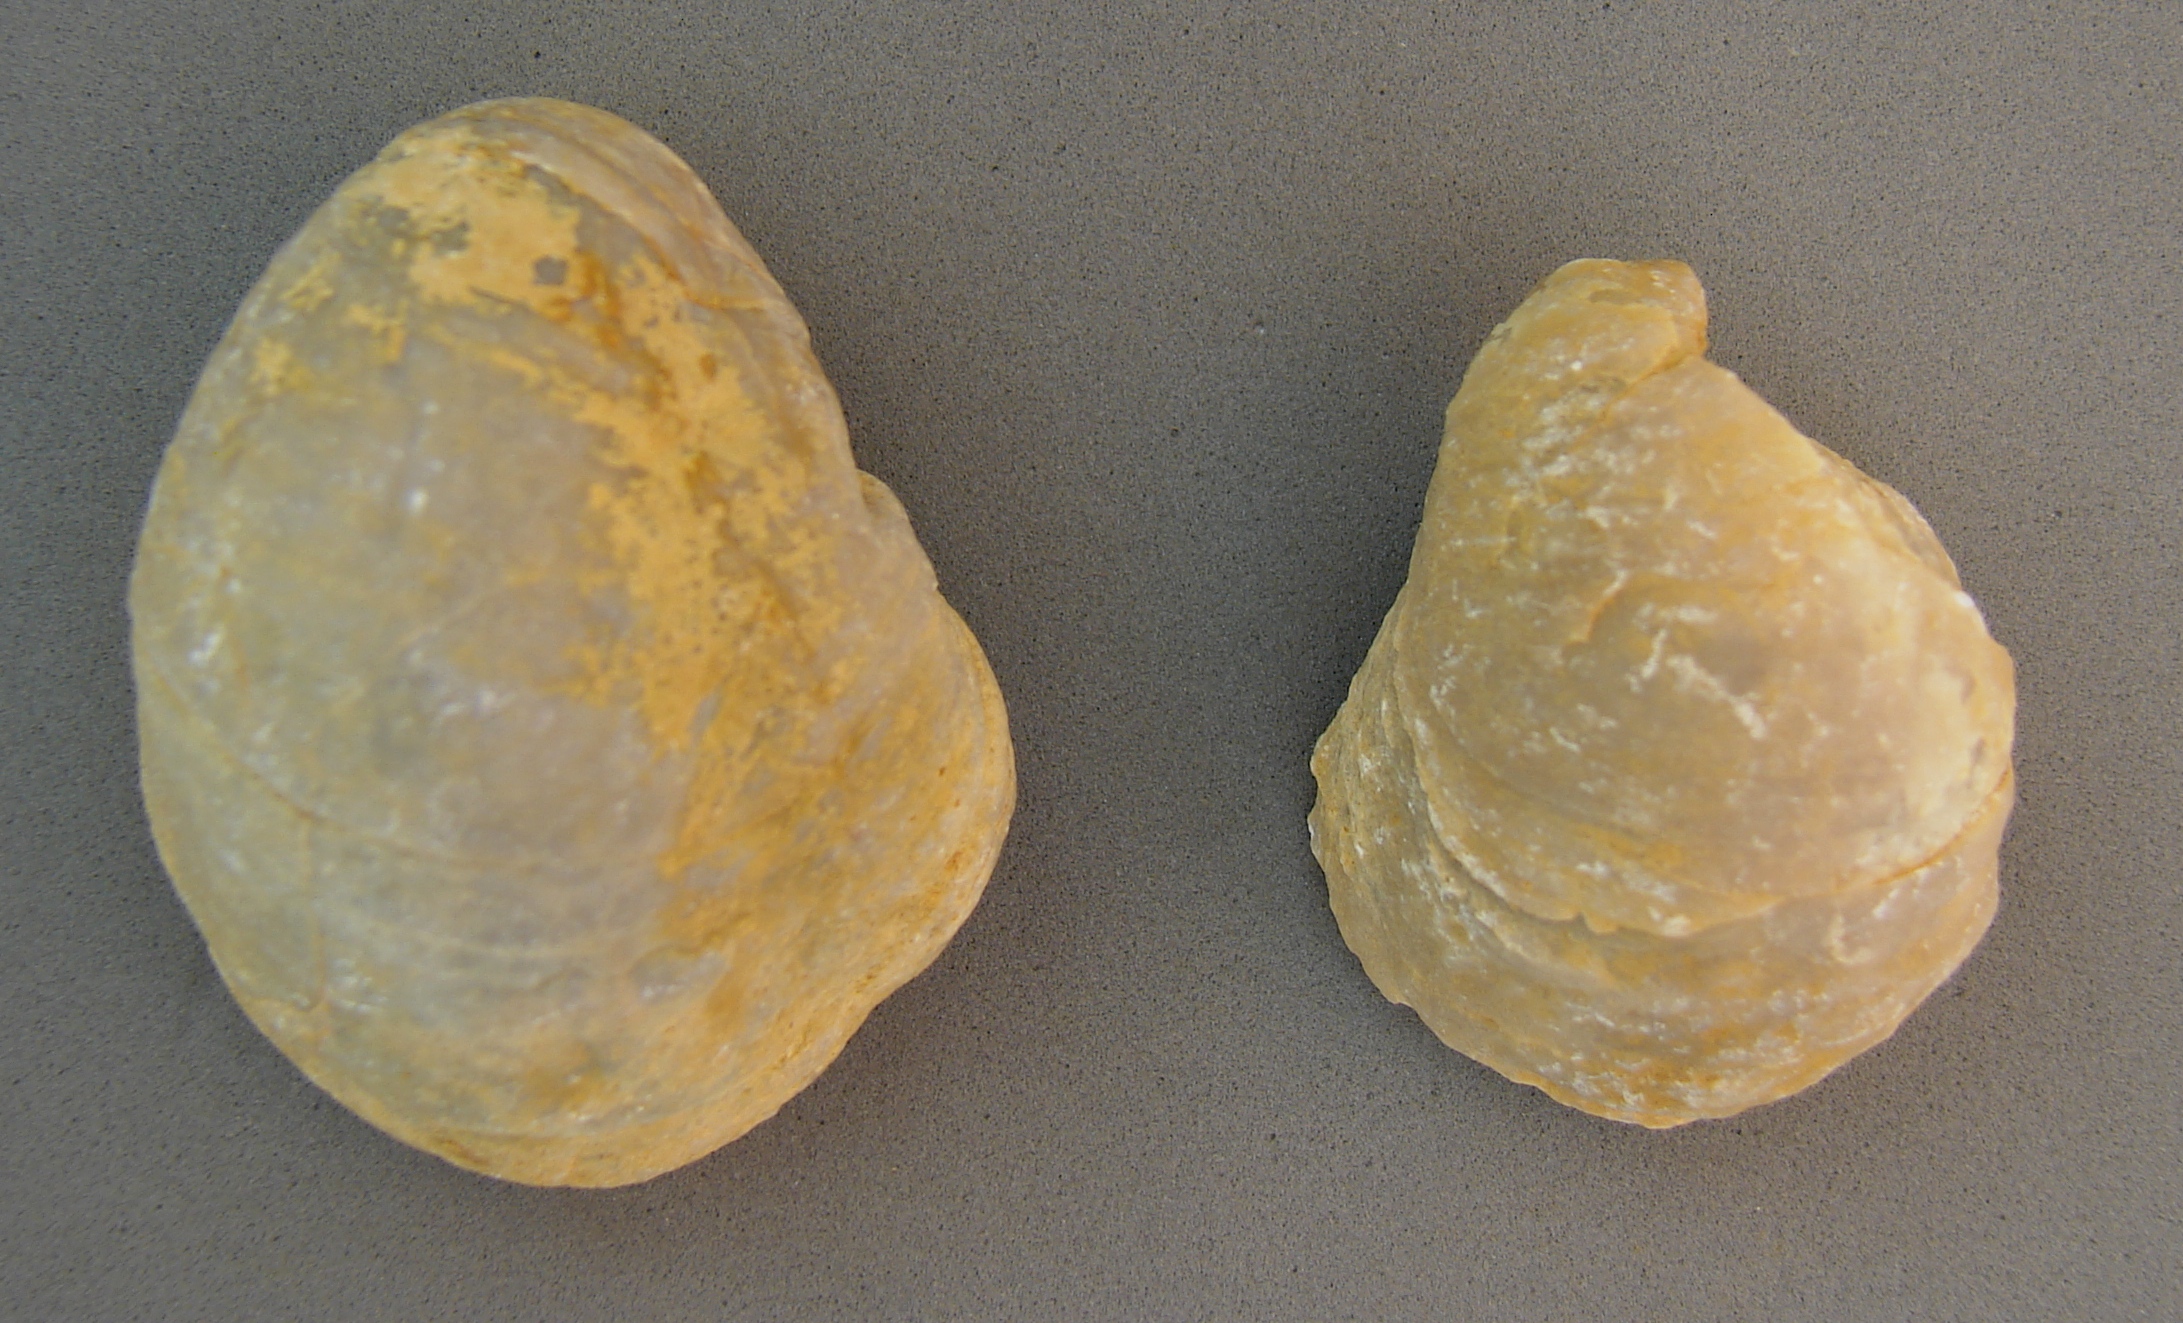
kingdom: Animalia
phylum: Mollusca
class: Bivalvia
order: Ostreida
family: Gryphaeidae
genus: Gryphaea
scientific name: Gryphaea
